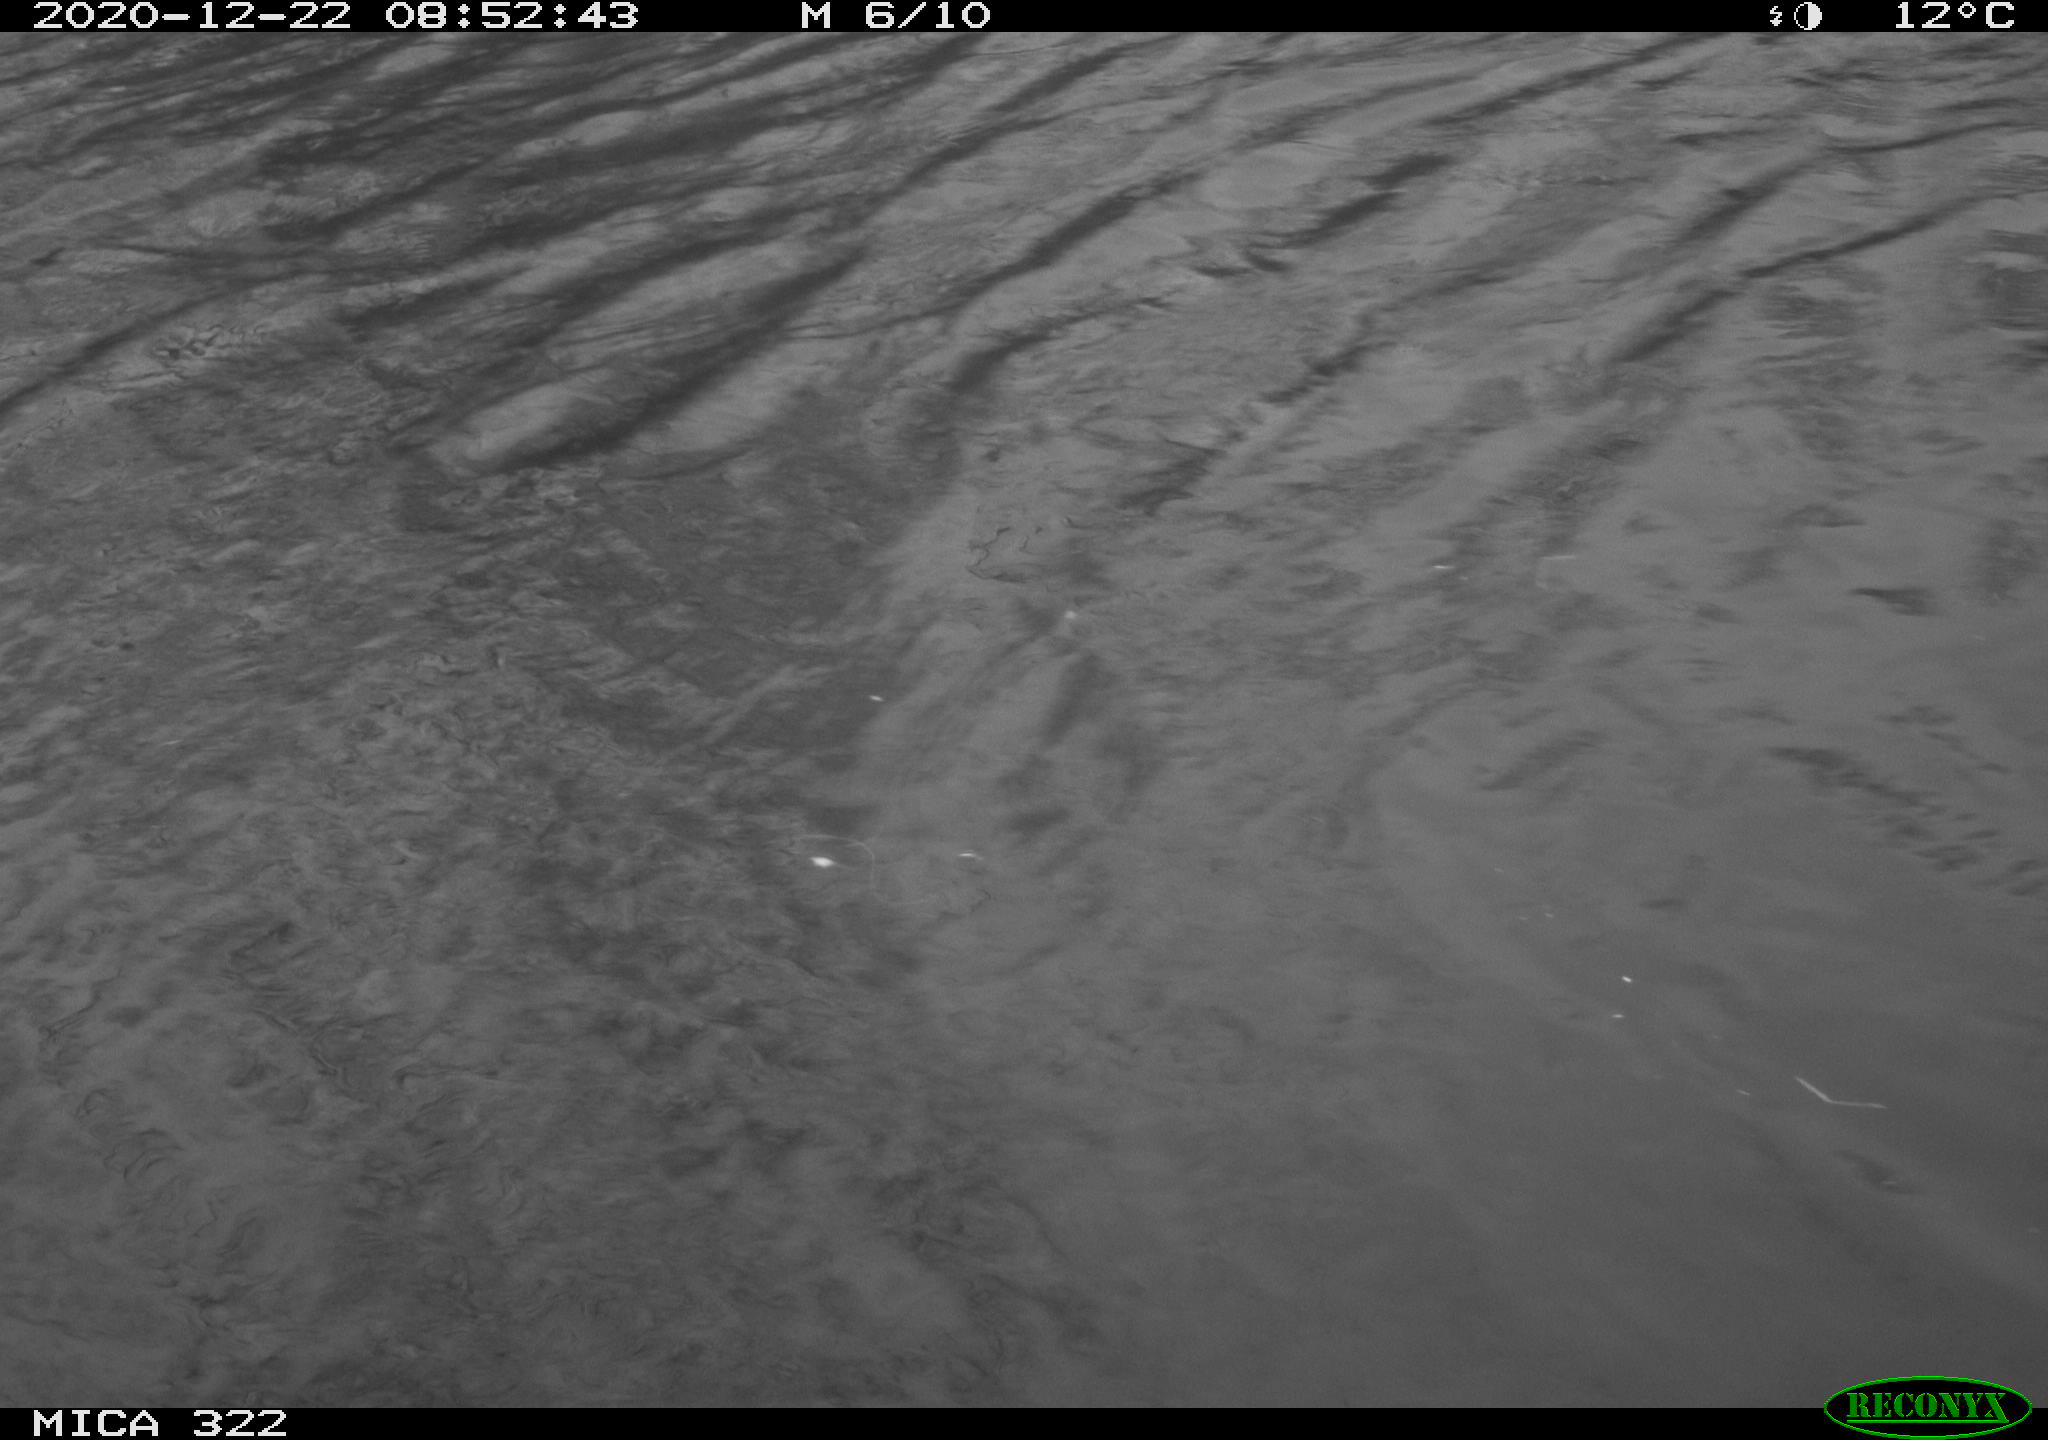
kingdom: Animalia
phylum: Chordata
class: Aves
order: Gruiformes
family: Rallidae
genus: Fulica
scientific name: Fulica atra
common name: Eurasian coot
